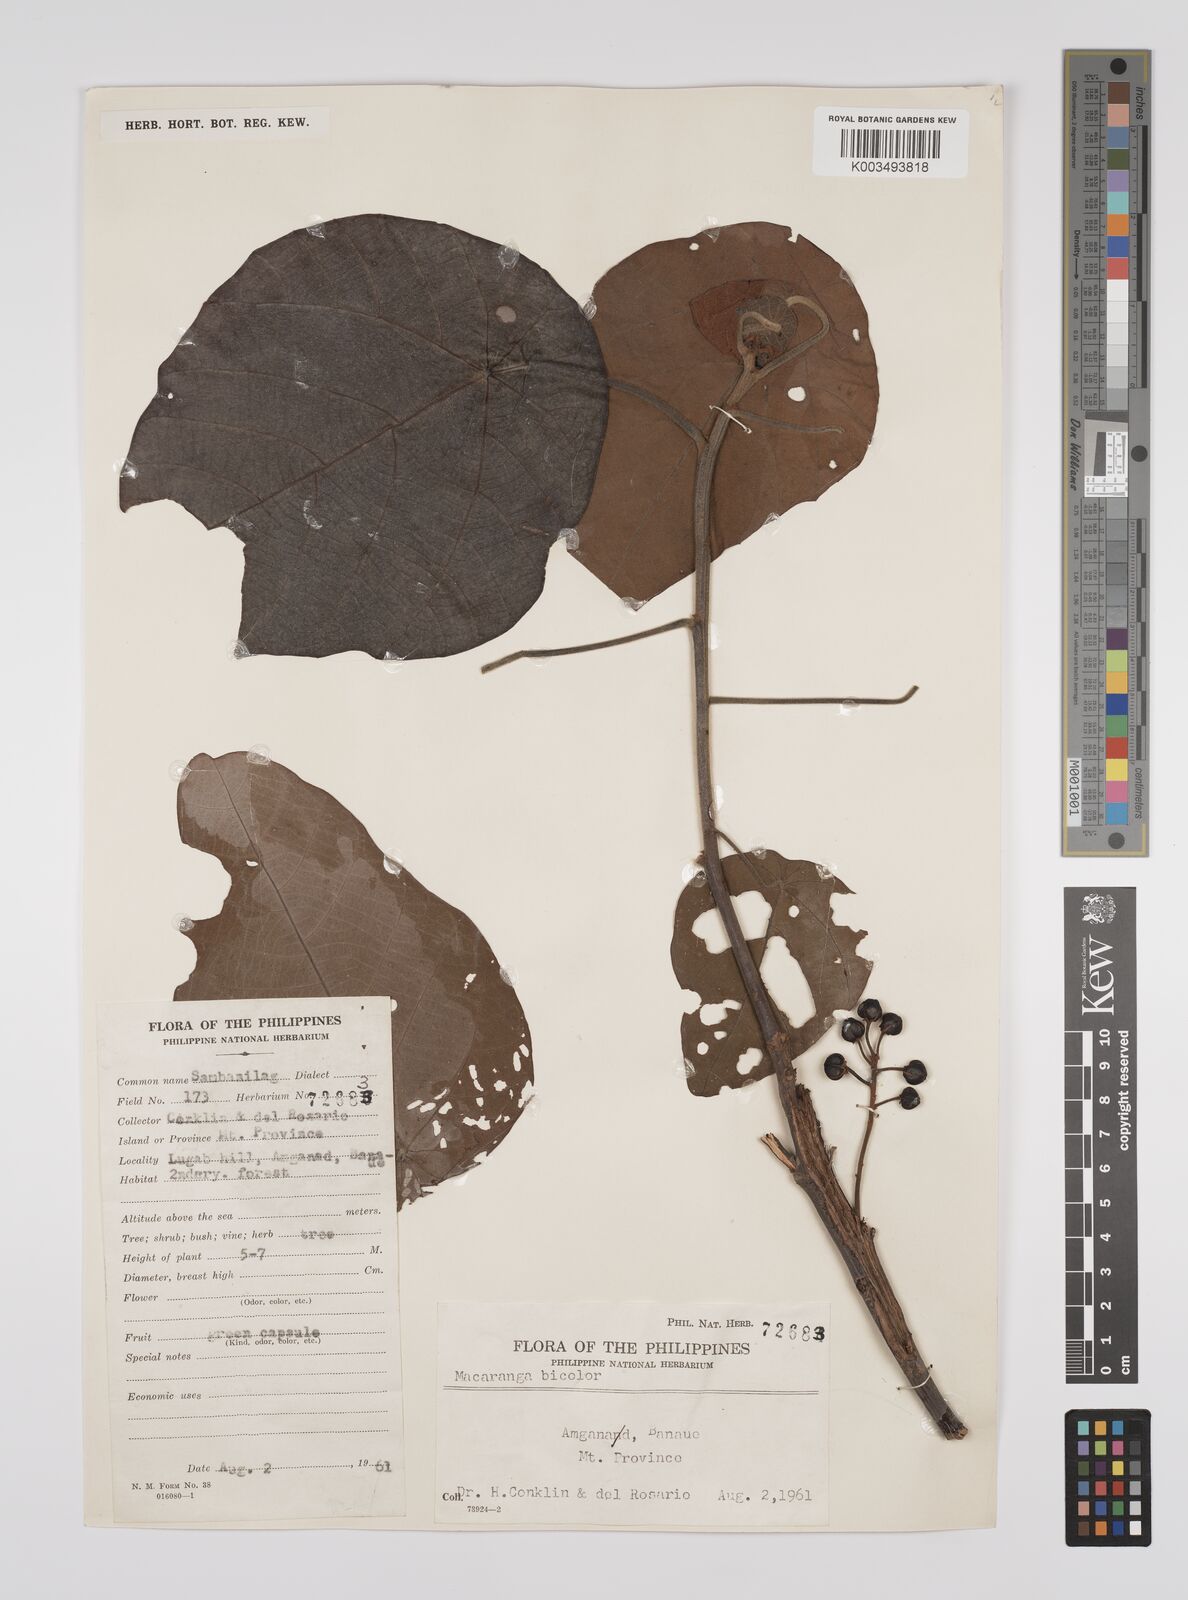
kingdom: Plantae
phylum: Tracheophyta
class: Magnoliopsida
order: Malpighiales
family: Euphorbiaceae
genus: Macaranga
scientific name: Macaranga bicolor
